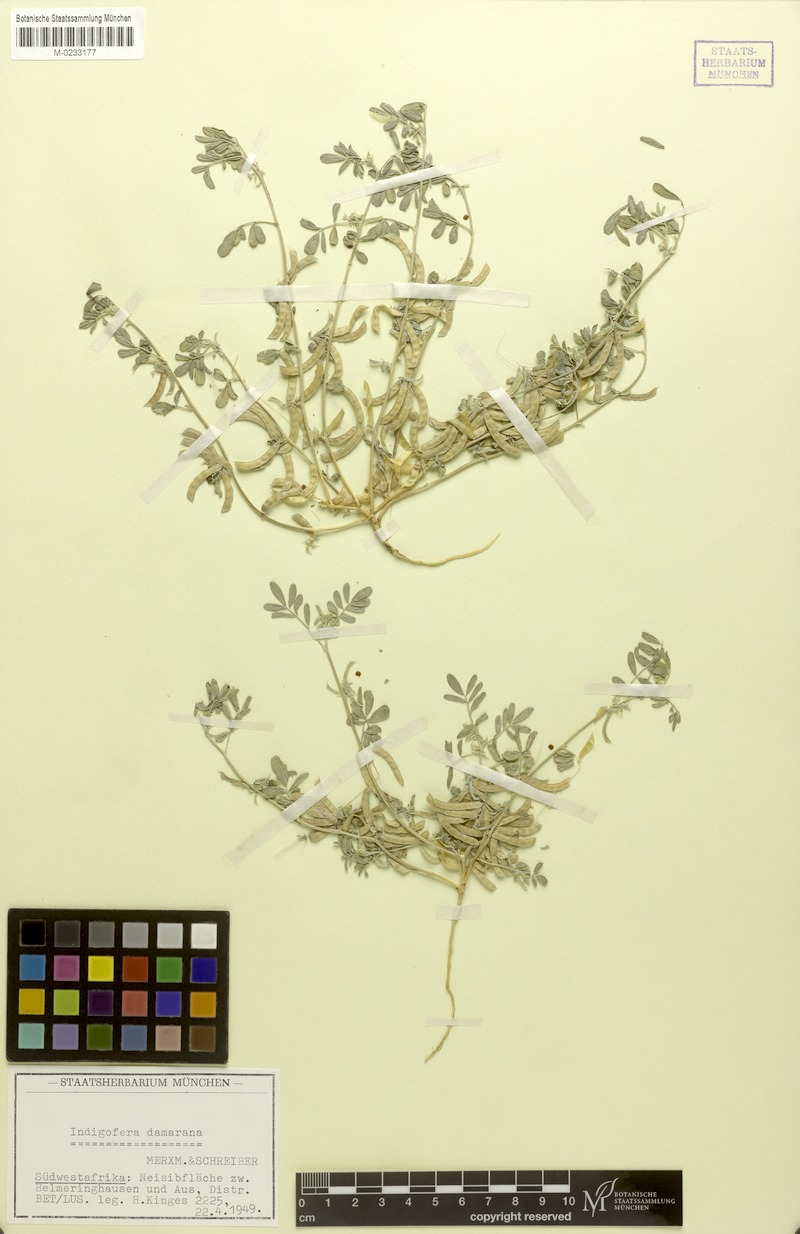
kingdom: Plantae
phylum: Tracheophyta
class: Magnoliopsida
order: Fabales
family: Fabaceae
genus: Indigofera
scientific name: Indigofera damarana
